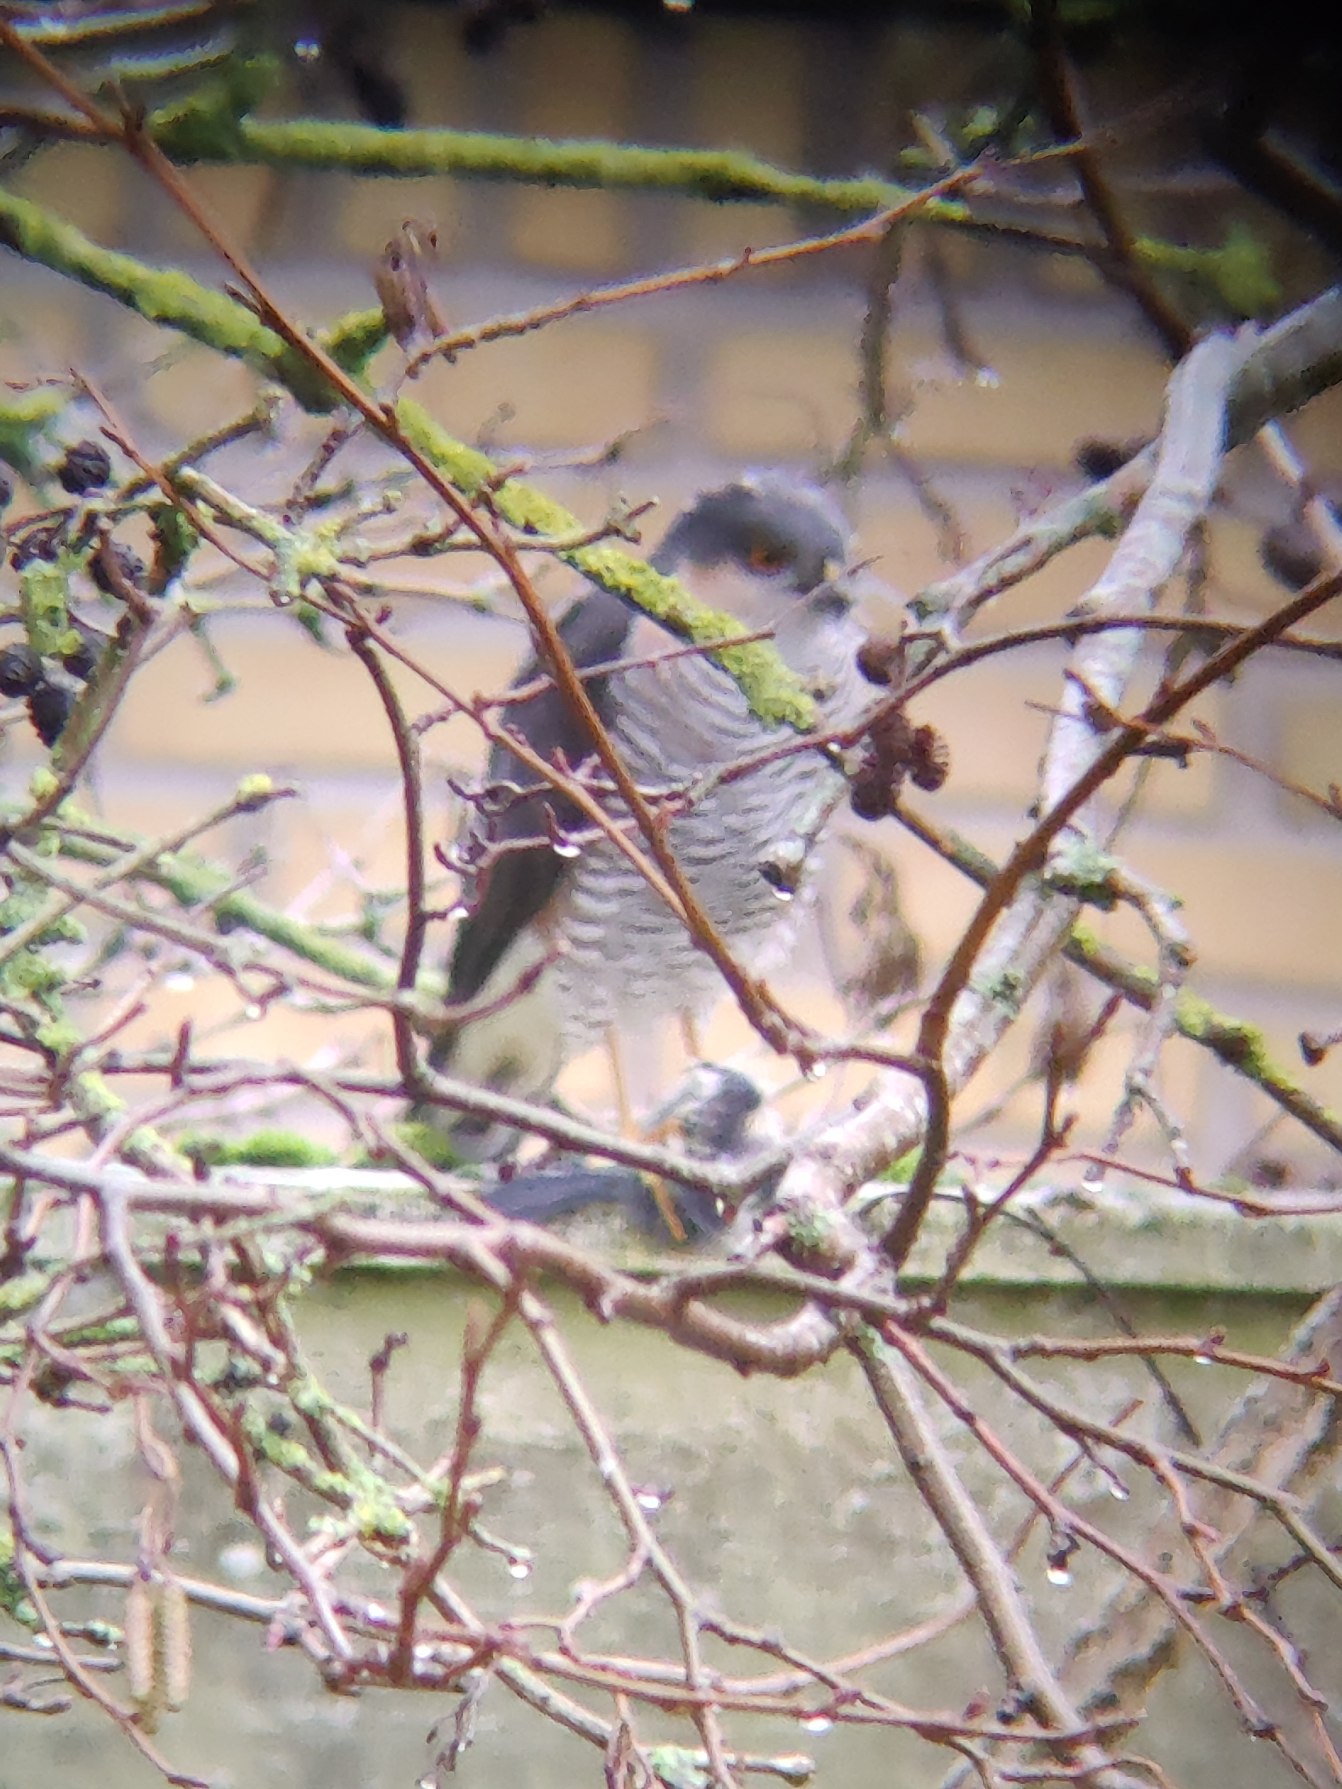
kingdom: Animalia
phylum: Chordata
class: Aves
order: Accipitriformes
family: Accipitridae
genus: Accipiter
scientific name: Accipiter nisus
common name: Spurvehøg
